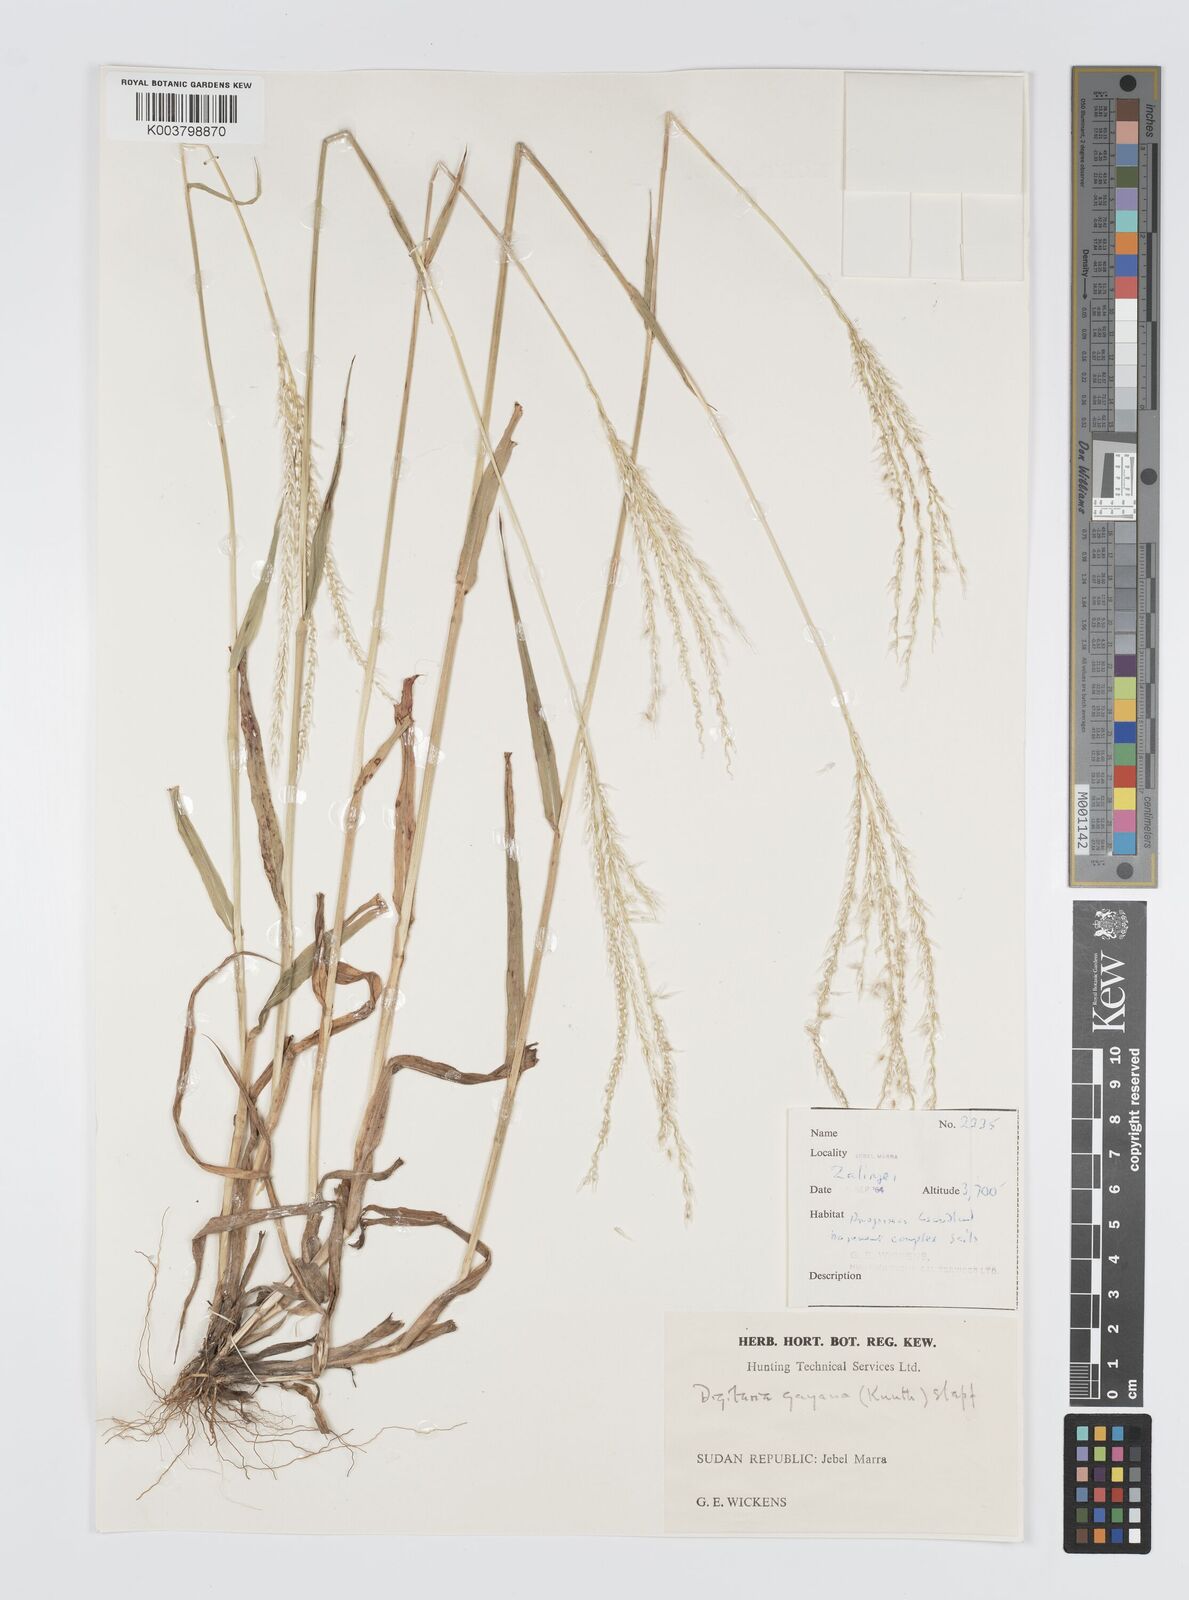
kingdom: Plantae
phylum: Tracheophyta
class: Liliopsida
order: Poales
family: Poaceae
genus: Digitaria
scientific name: Digitaria gayana
